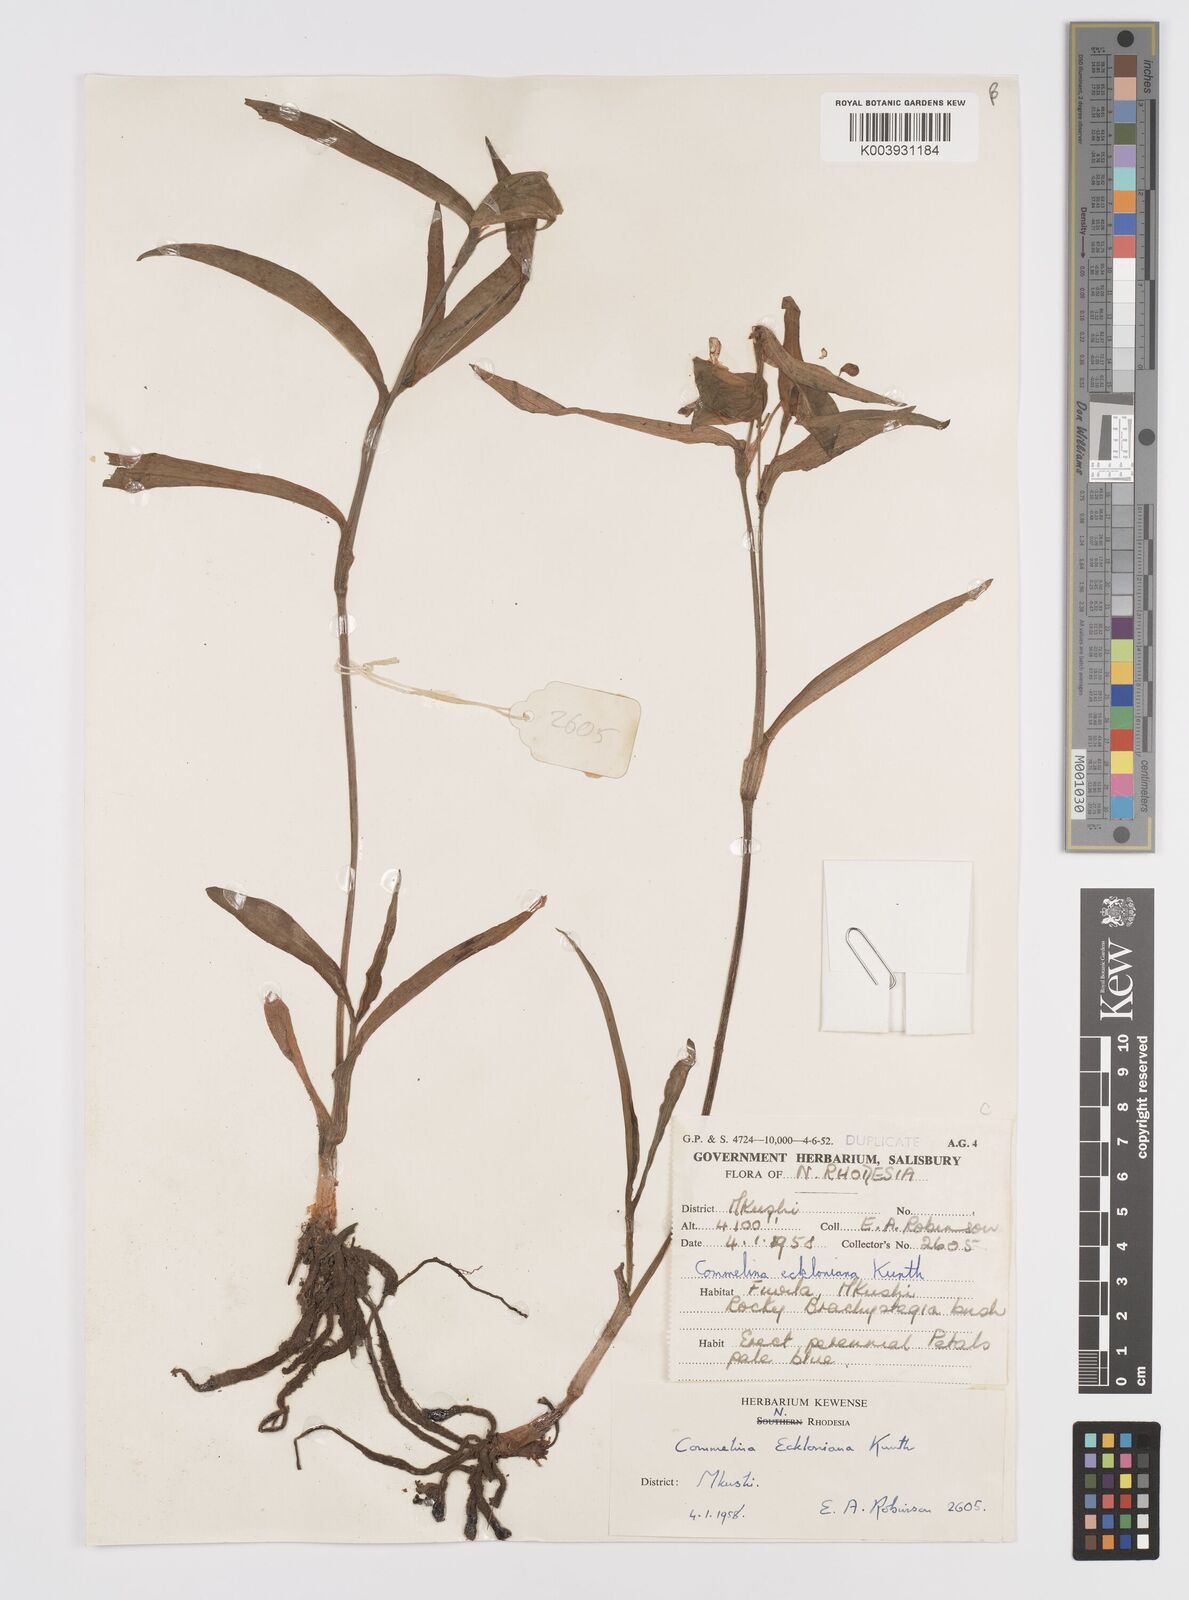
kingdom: Plantae
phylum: Tracheophyta
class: Liliopsida
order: Commelinales
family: Commelinaceae
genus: Commelina
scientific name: Commelina eckloniana
